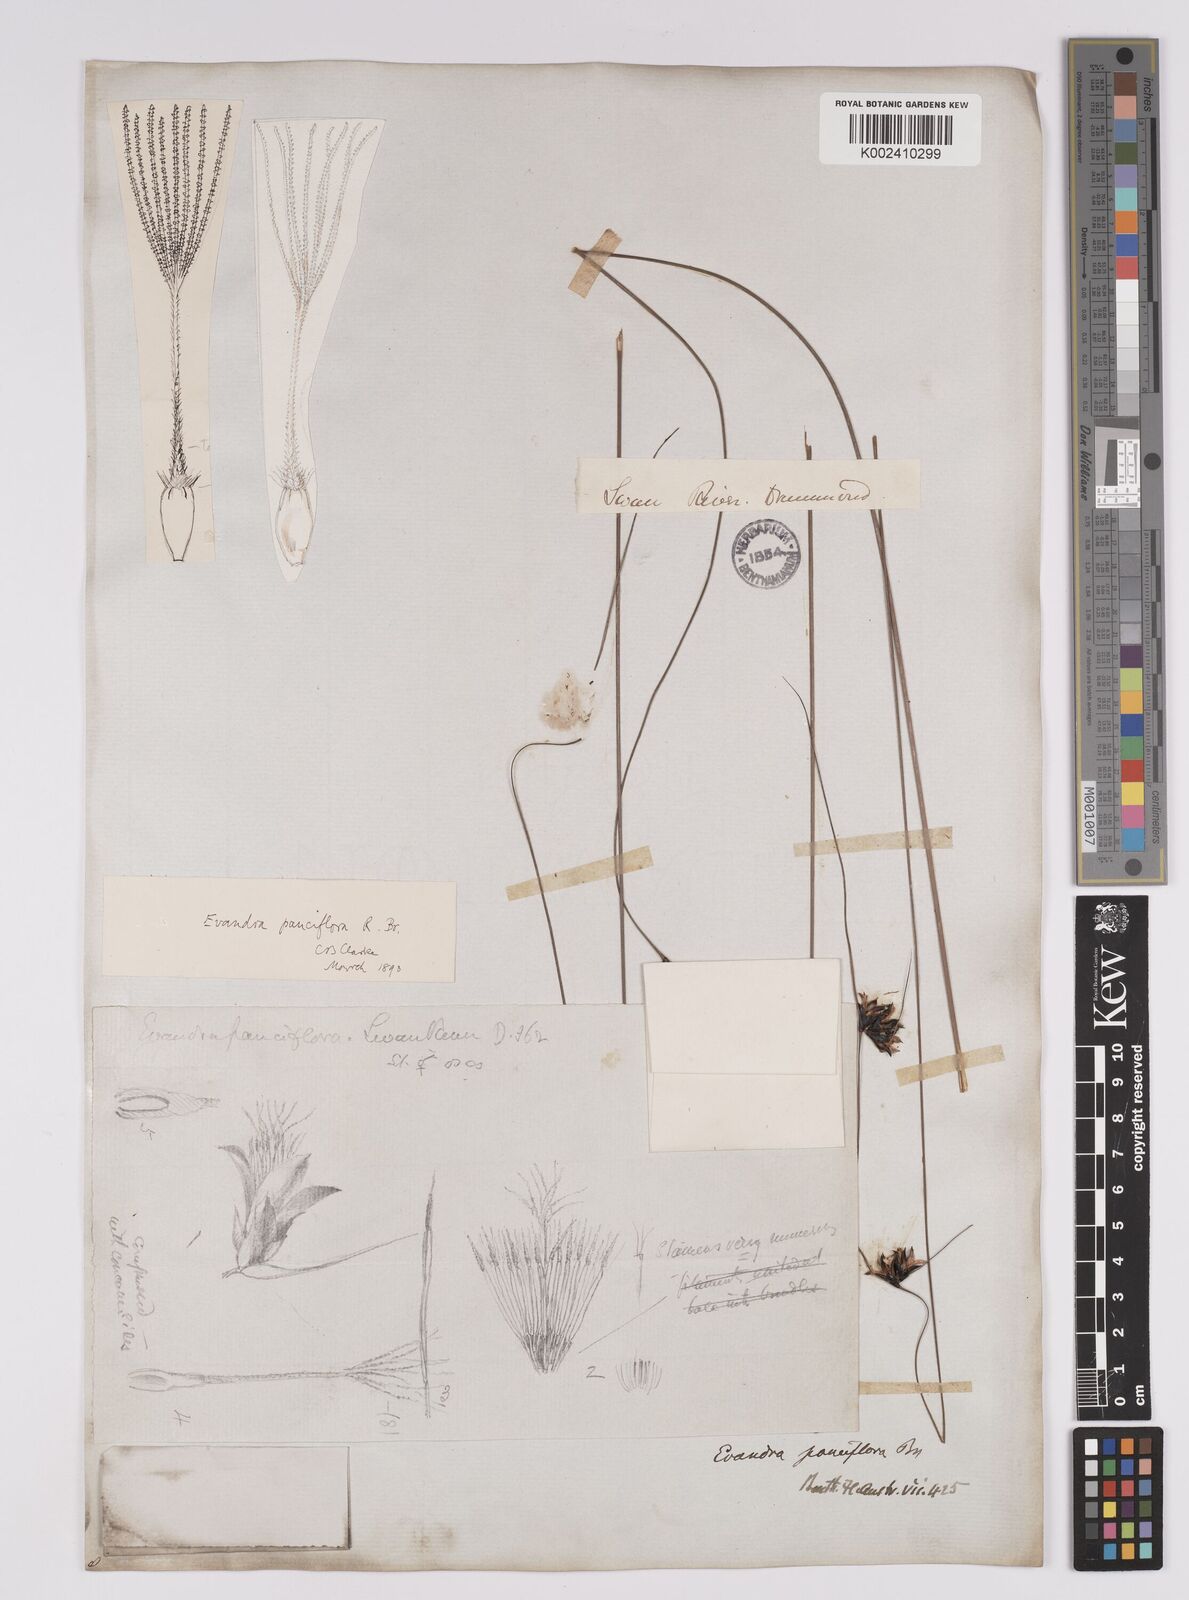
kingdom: Plantae
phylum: Tracheophyta
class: Liliopsida
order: Poales
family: Cyperaceae
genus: Evandra
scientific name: Evandra pauciflora
